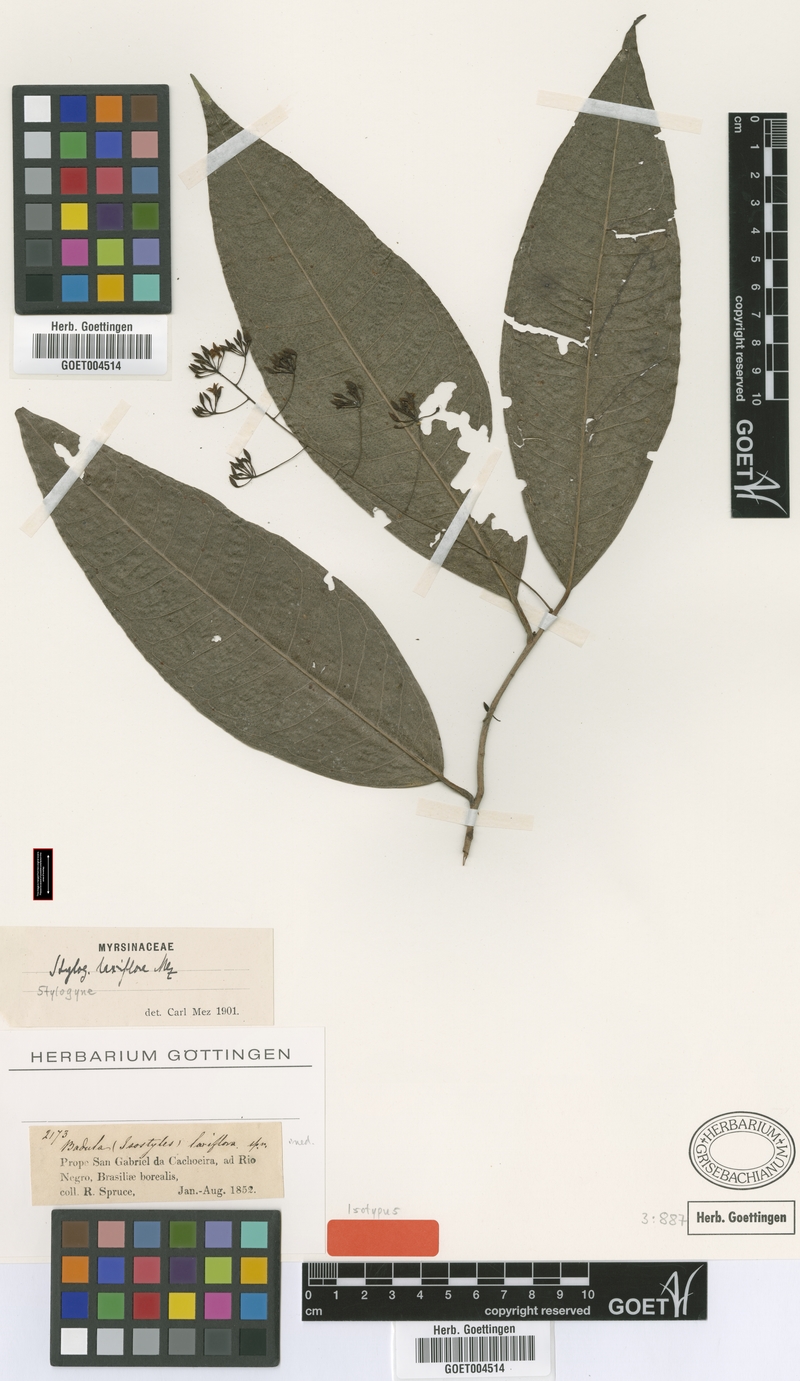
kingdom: Plantae
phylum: Tracheophyta
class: Magnoliopsida
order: Ericales
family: Primulaceae
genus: Stylogyne
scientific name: Stylogyne laxiflora
